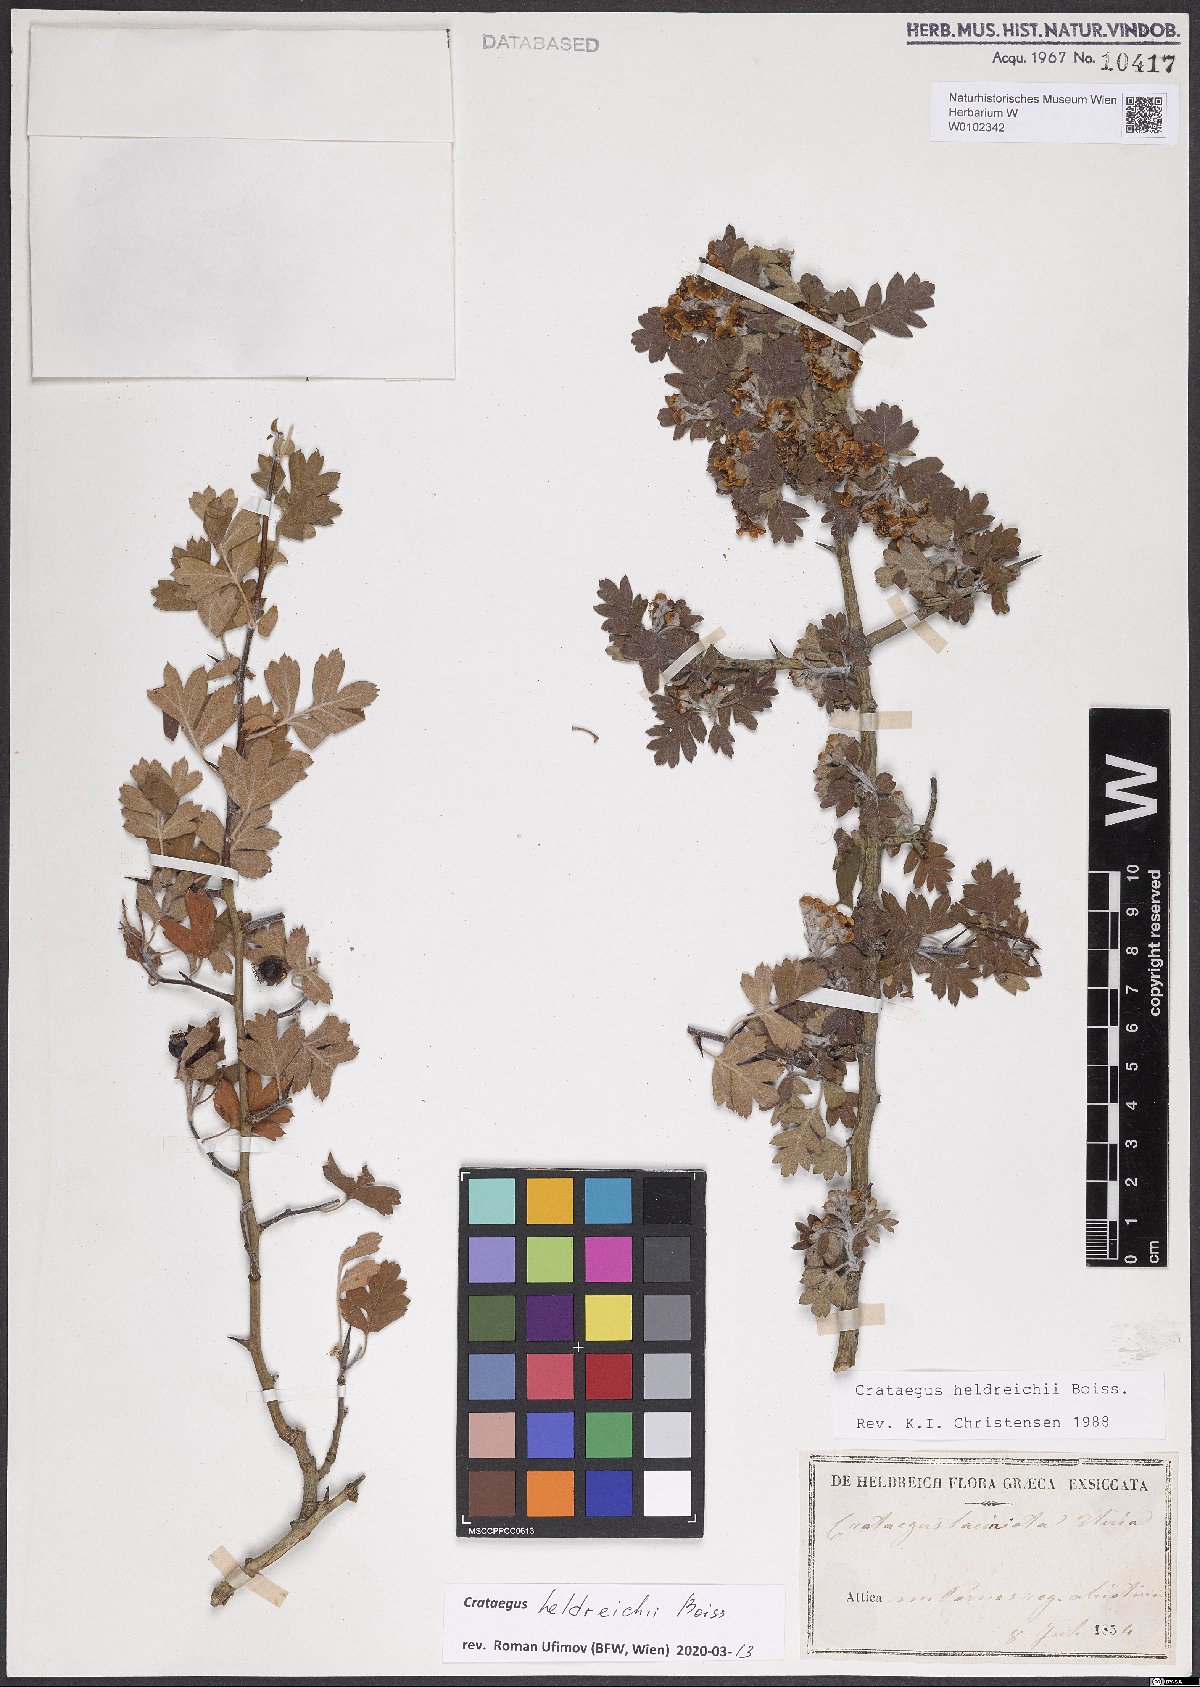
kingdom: Plantae
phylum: Tracheophyta
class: Magnoliopsida
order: Rosales
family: Rosaceae
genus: Crataegus
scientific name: Crataegus heldreichii
